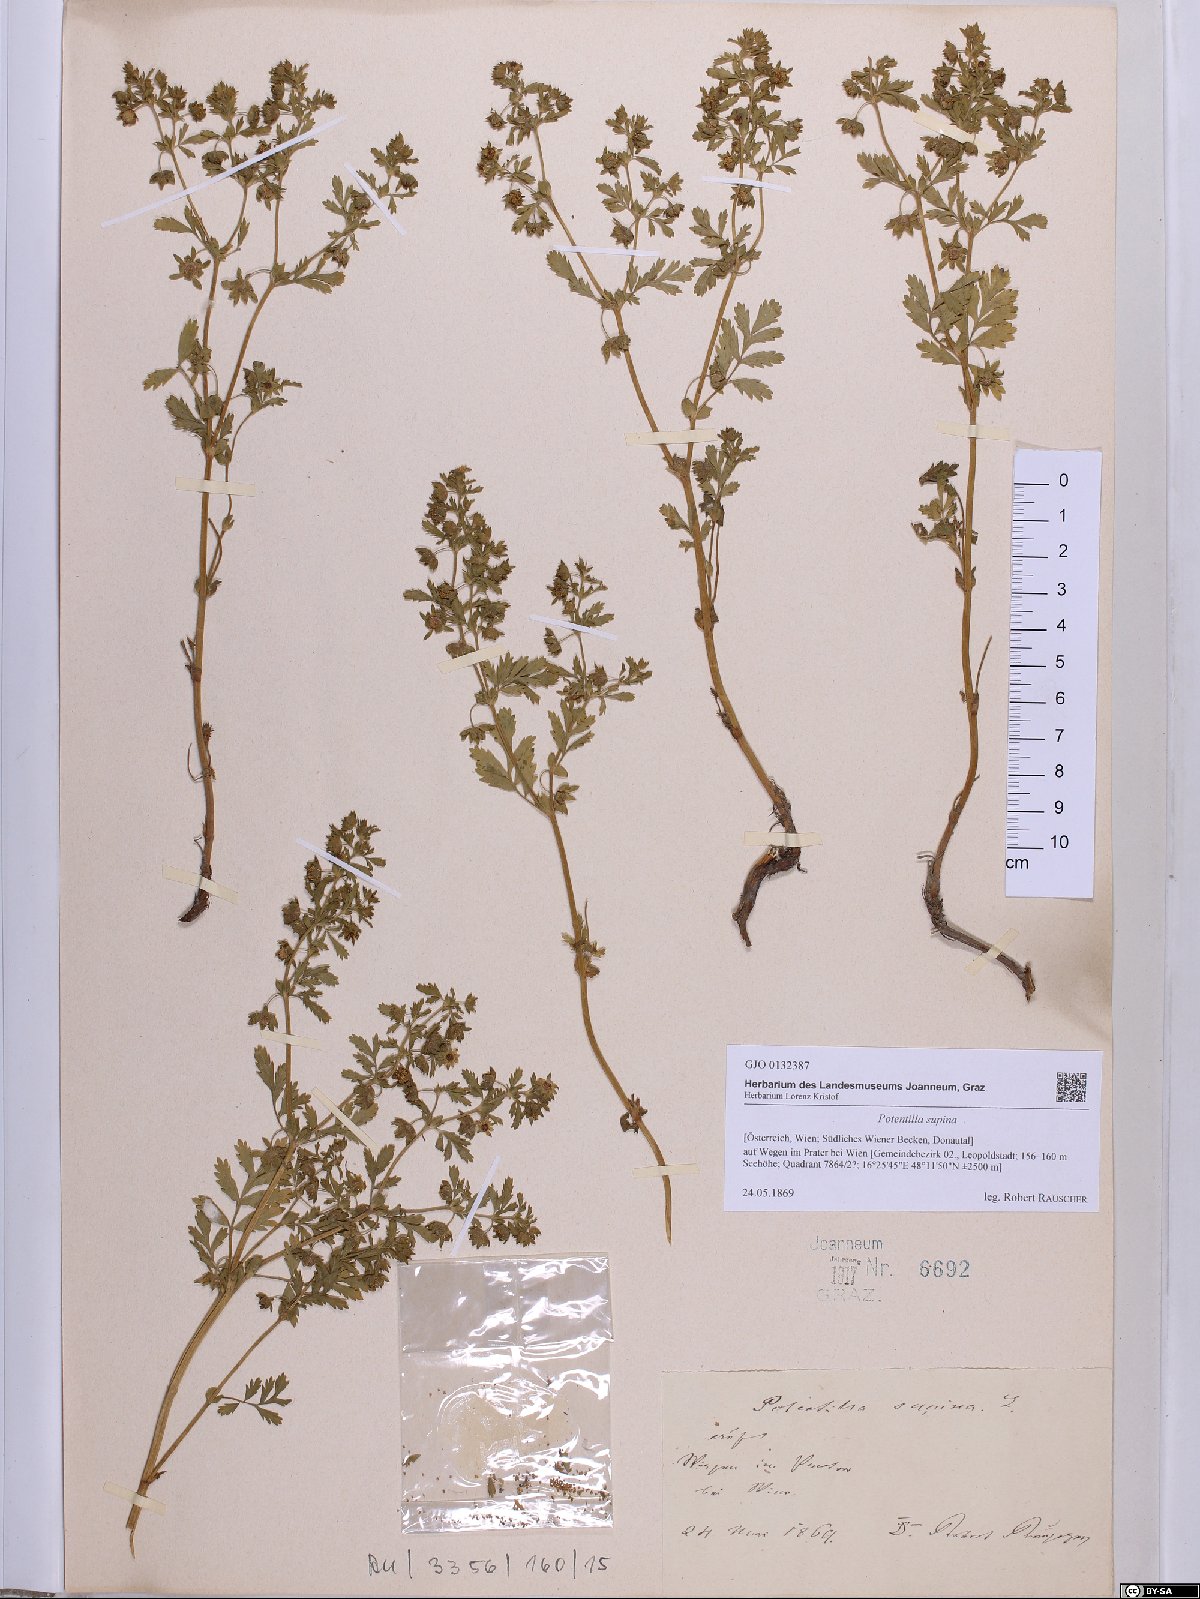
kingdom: Plantae
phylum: Tracheophyta
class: Magnoliopsida
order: Rosales
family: Rosaceae
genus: Potentilla
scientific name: Potentilla supina
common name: Prostrate cinquefoil
